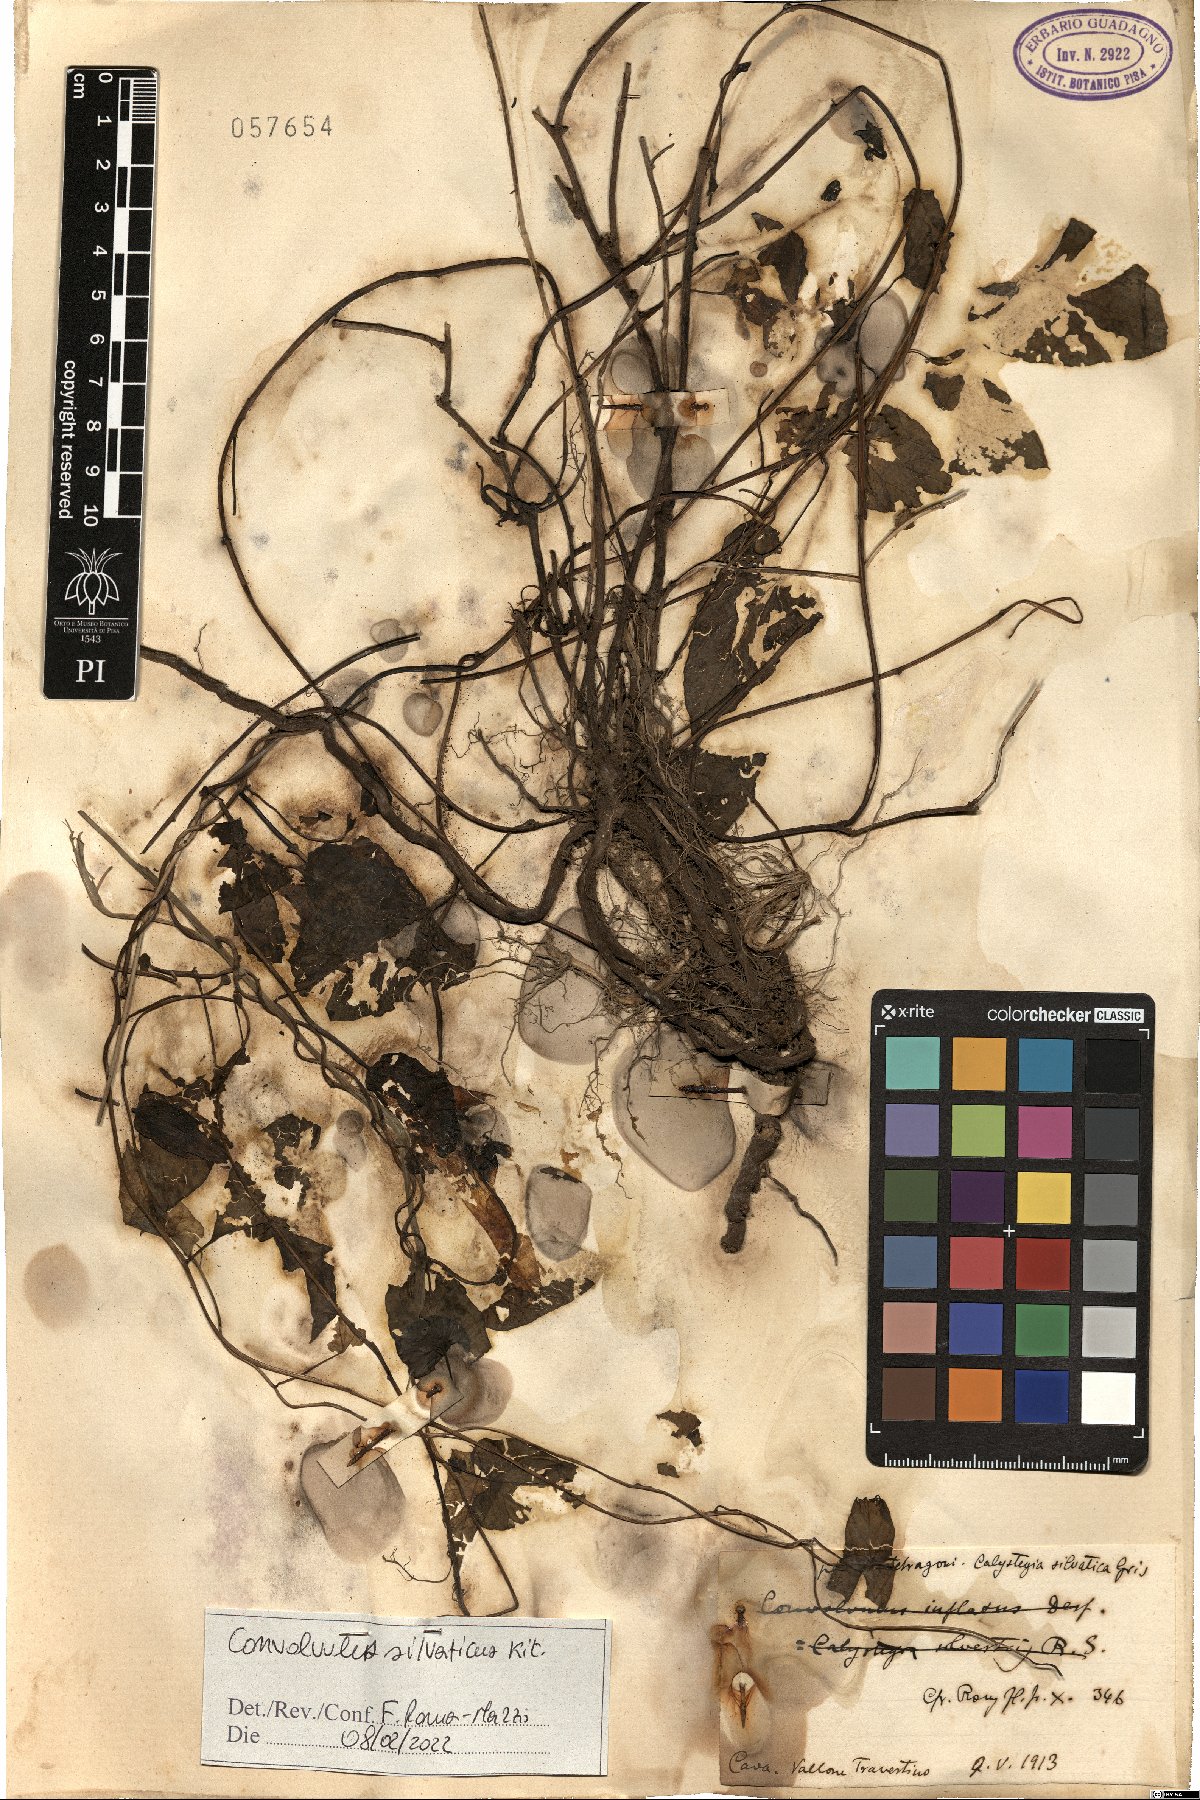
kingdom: Plantae
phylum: Tracheophyta
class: Magnoliopsida
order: Solanales
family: Convolvulaceae
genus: Calystegia
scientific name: Calystegia silvatica
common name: Large bindweed
